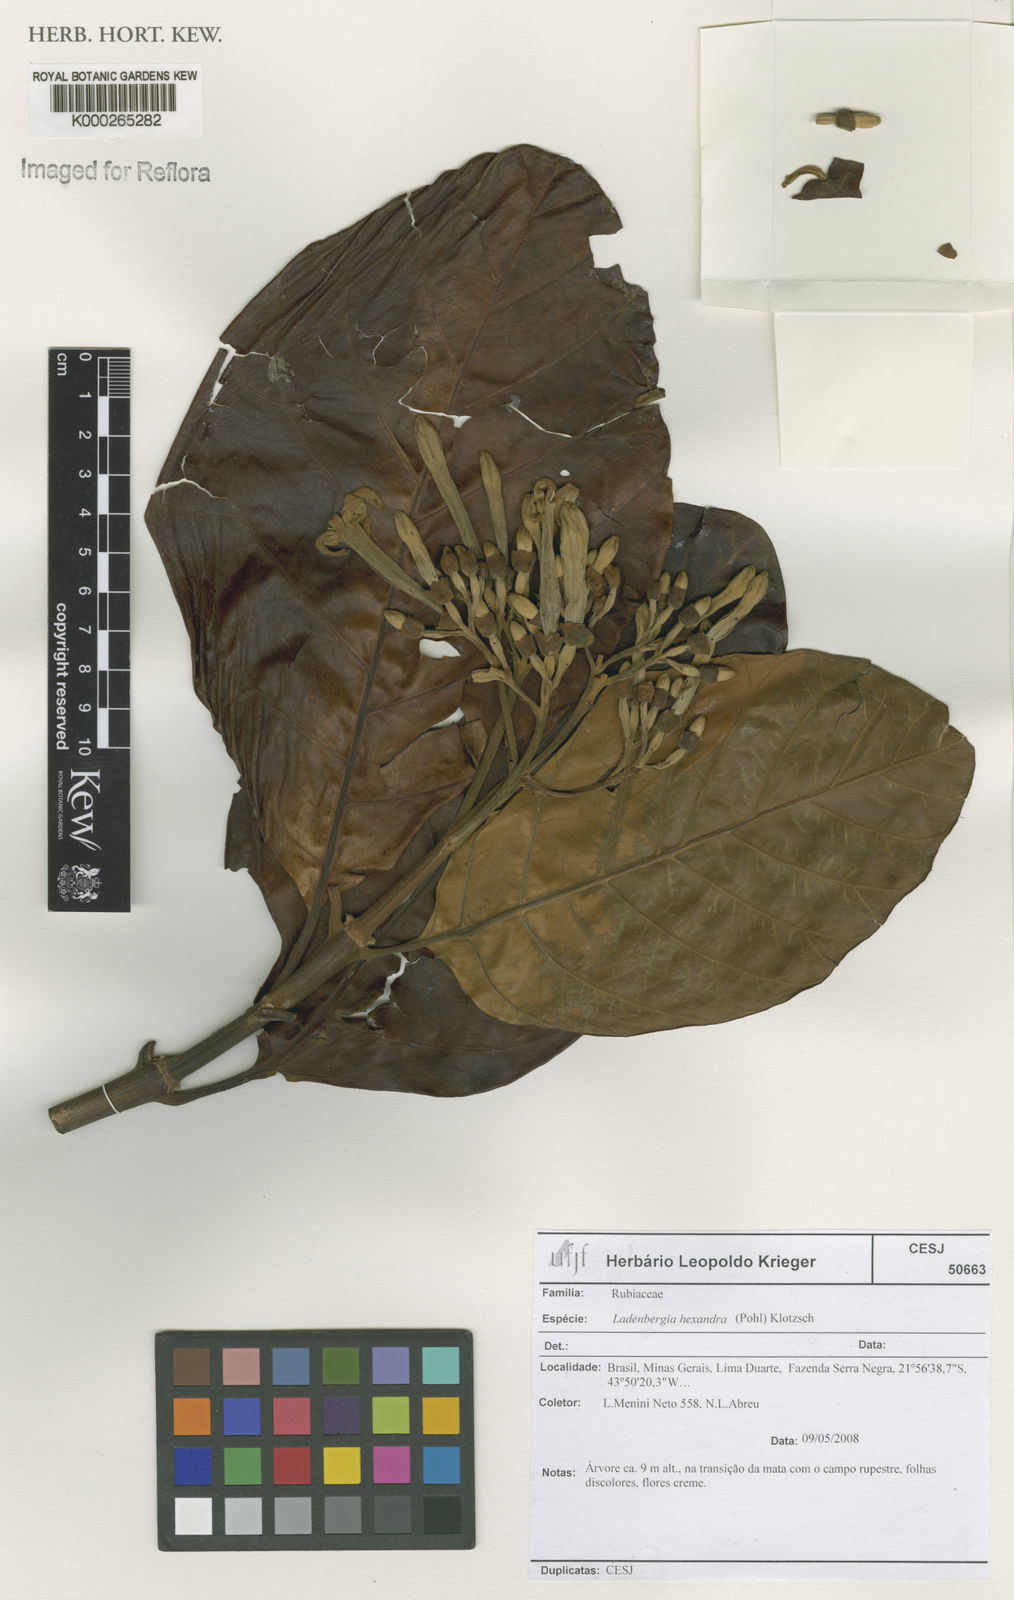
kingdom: Plantae
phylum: Tracheophyta
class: Magnoliopsida
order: Gentianales
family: Rubiaceae
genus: Ladenbergia
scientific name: Ladenbergia hexandra
